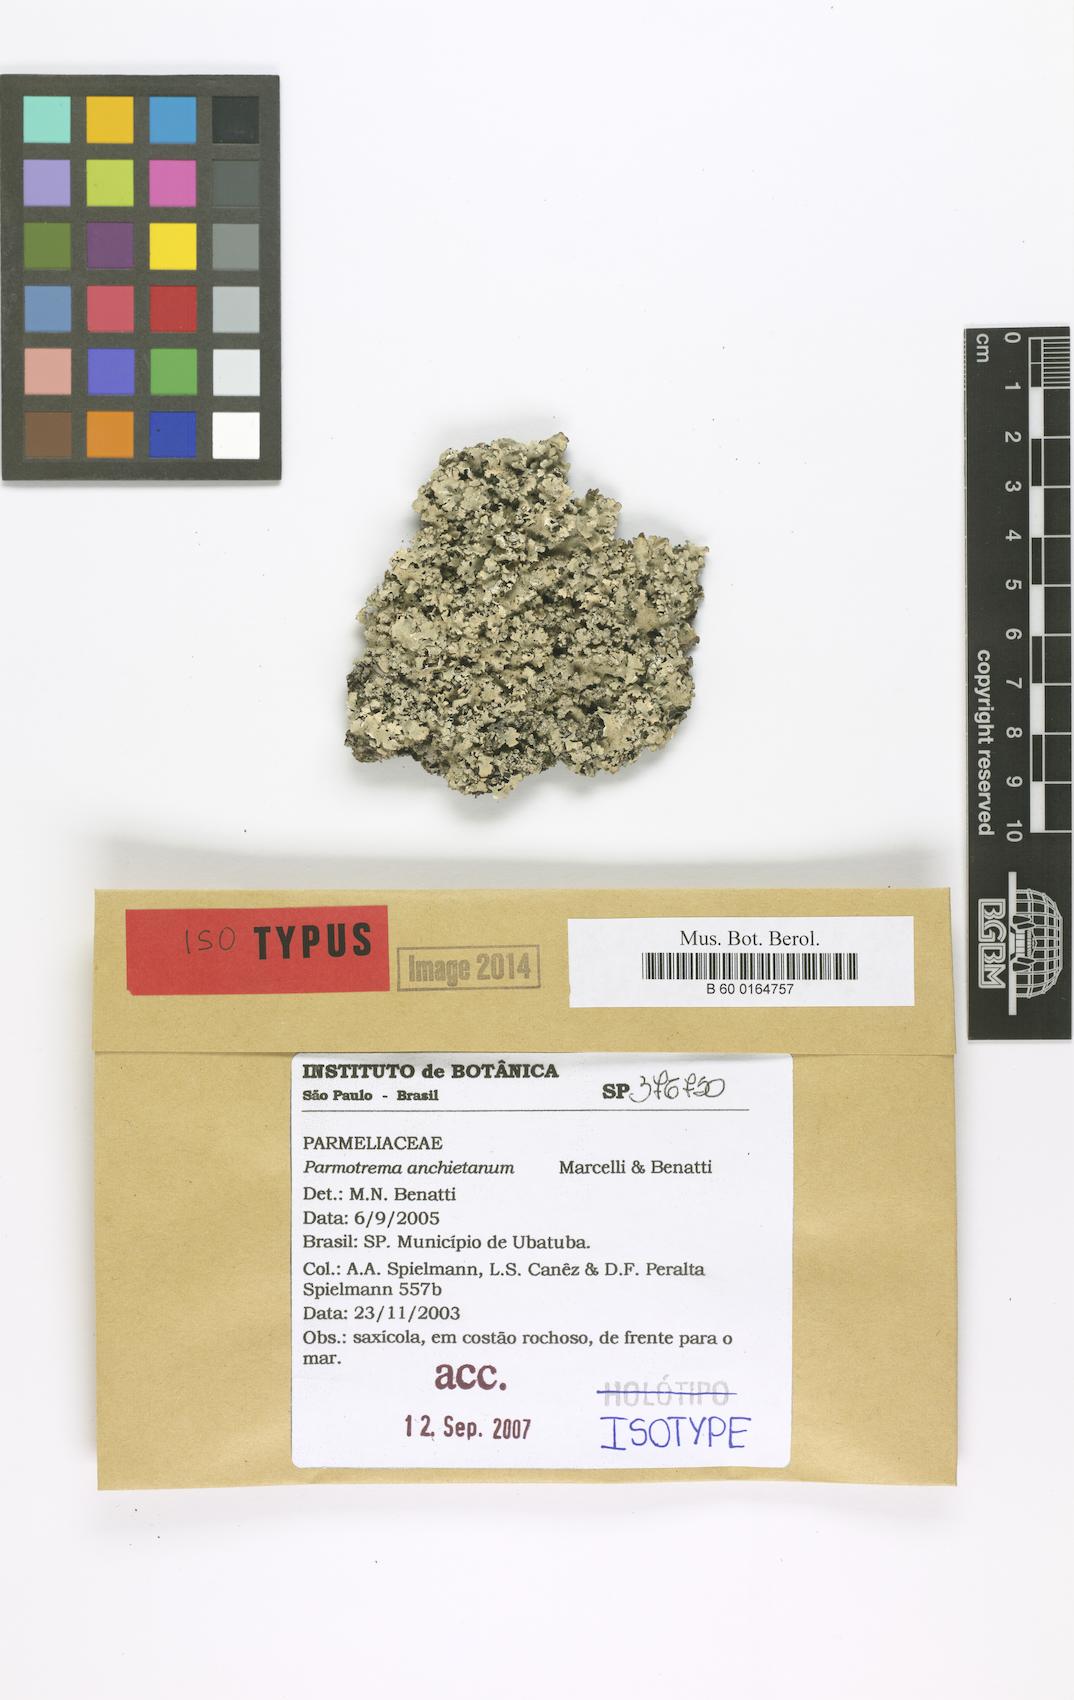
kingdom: Fungi
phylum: Ascomycota
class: Lecanoromycetes
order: Lecanorales
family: Parmeliaceae
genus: Parmotrema
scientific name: Parmotrema anchietanum
